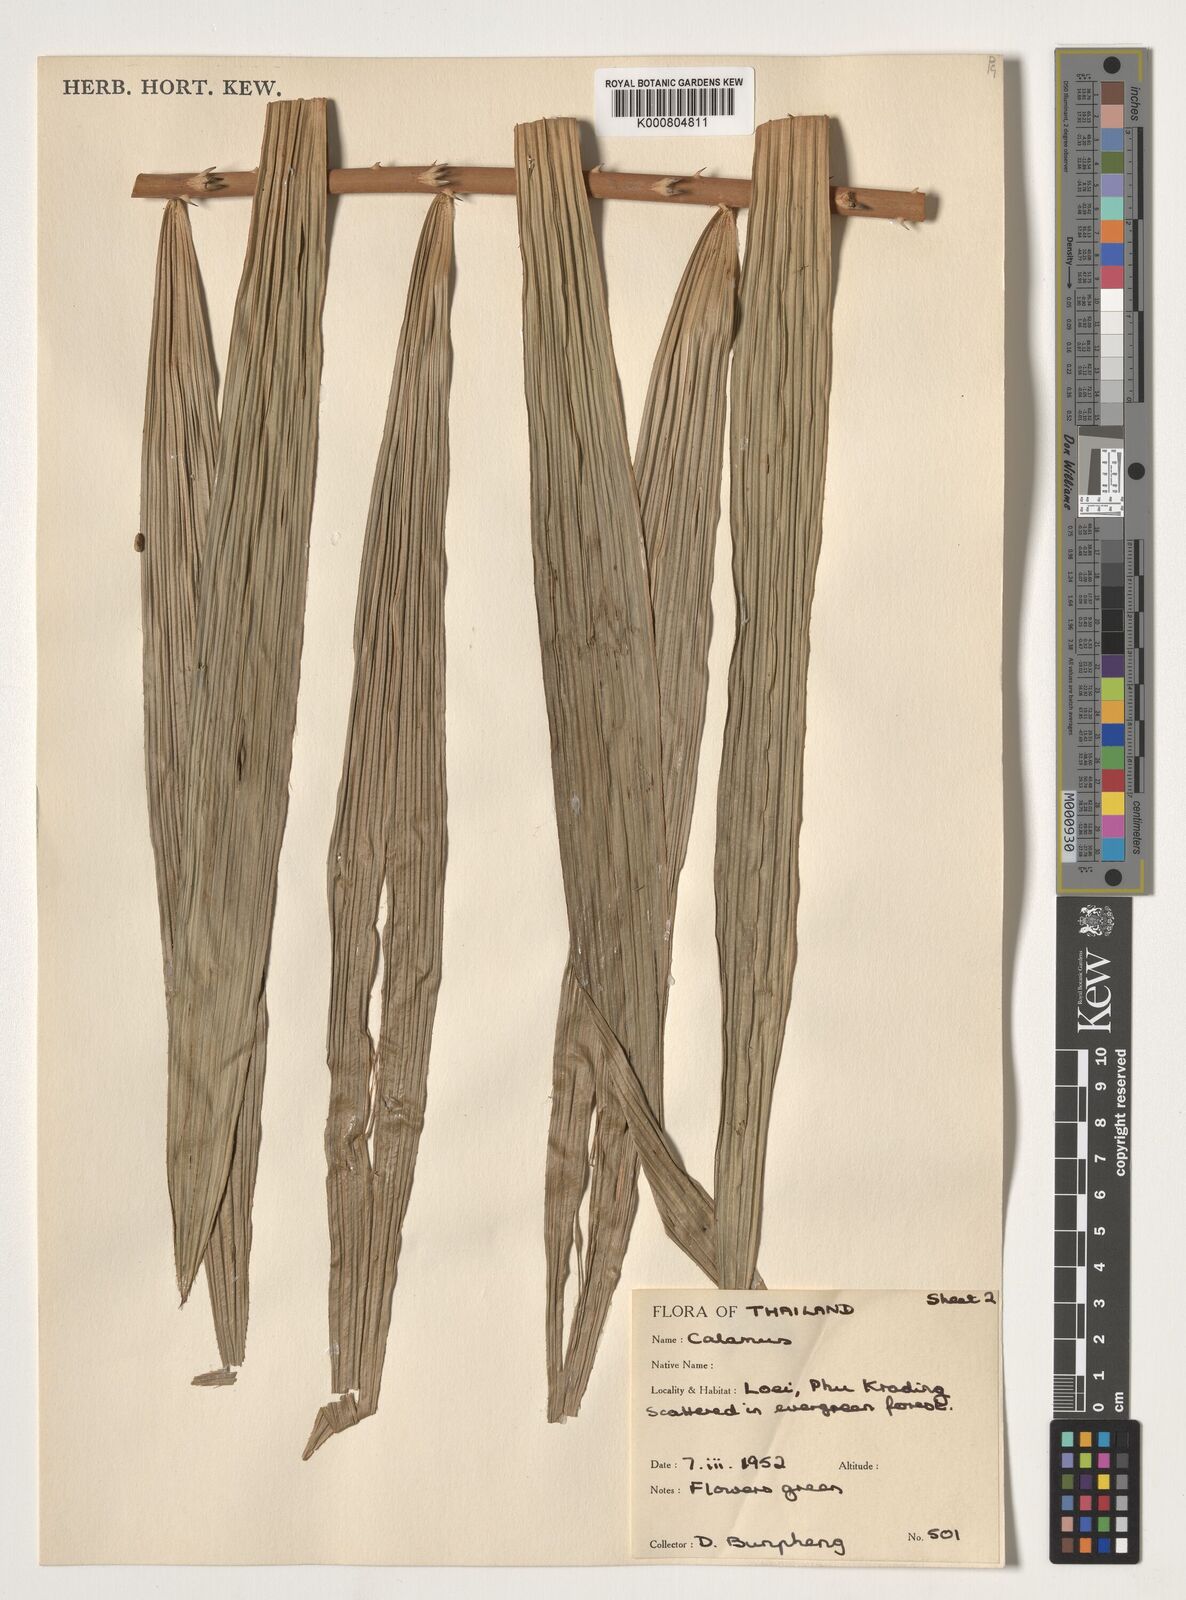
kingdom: Plantae
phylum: Tracheophyta
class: Liliopsida
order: Arecales
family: Arecaceae
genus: Calamus
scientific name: Calamus inermis
